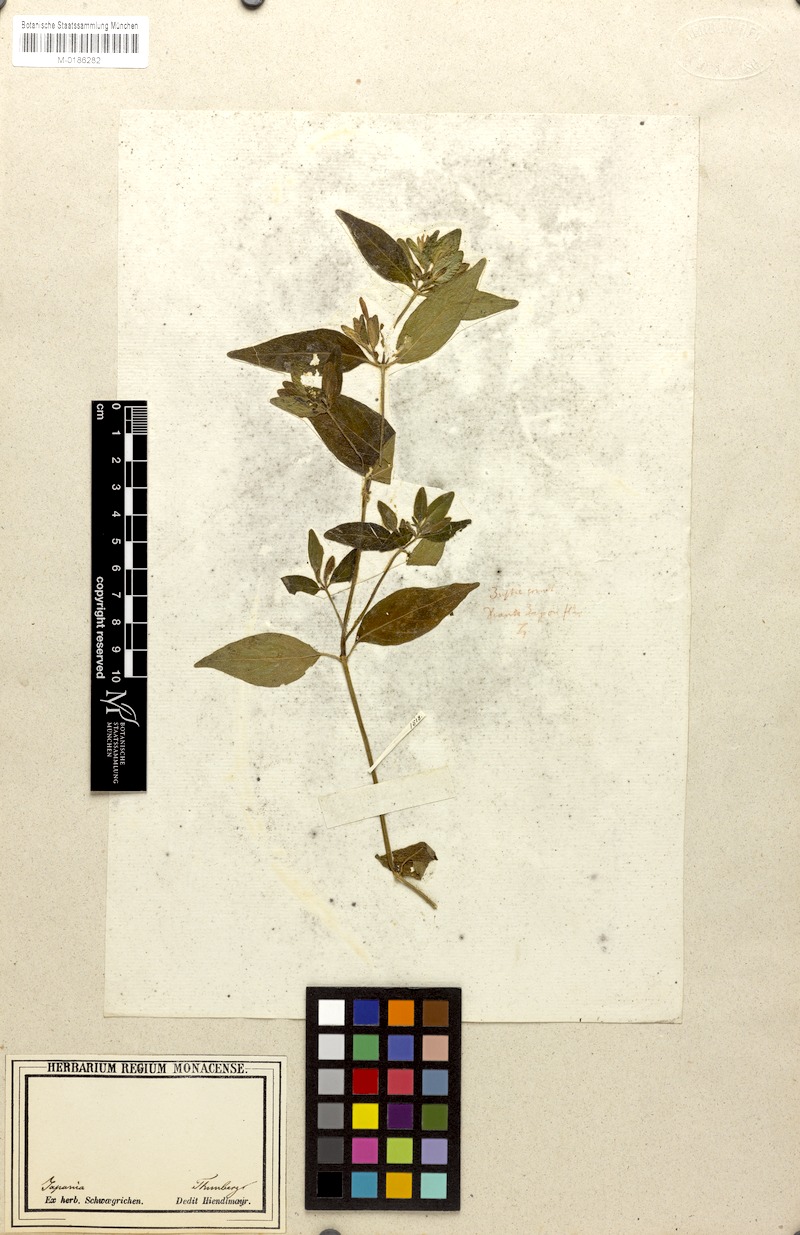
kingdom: Plantae
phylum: Tracheophyta
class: Magnoliopsida
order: Lamiales
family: Acanthaceae
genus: Dicliptera
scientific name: Dicliptera japonica
